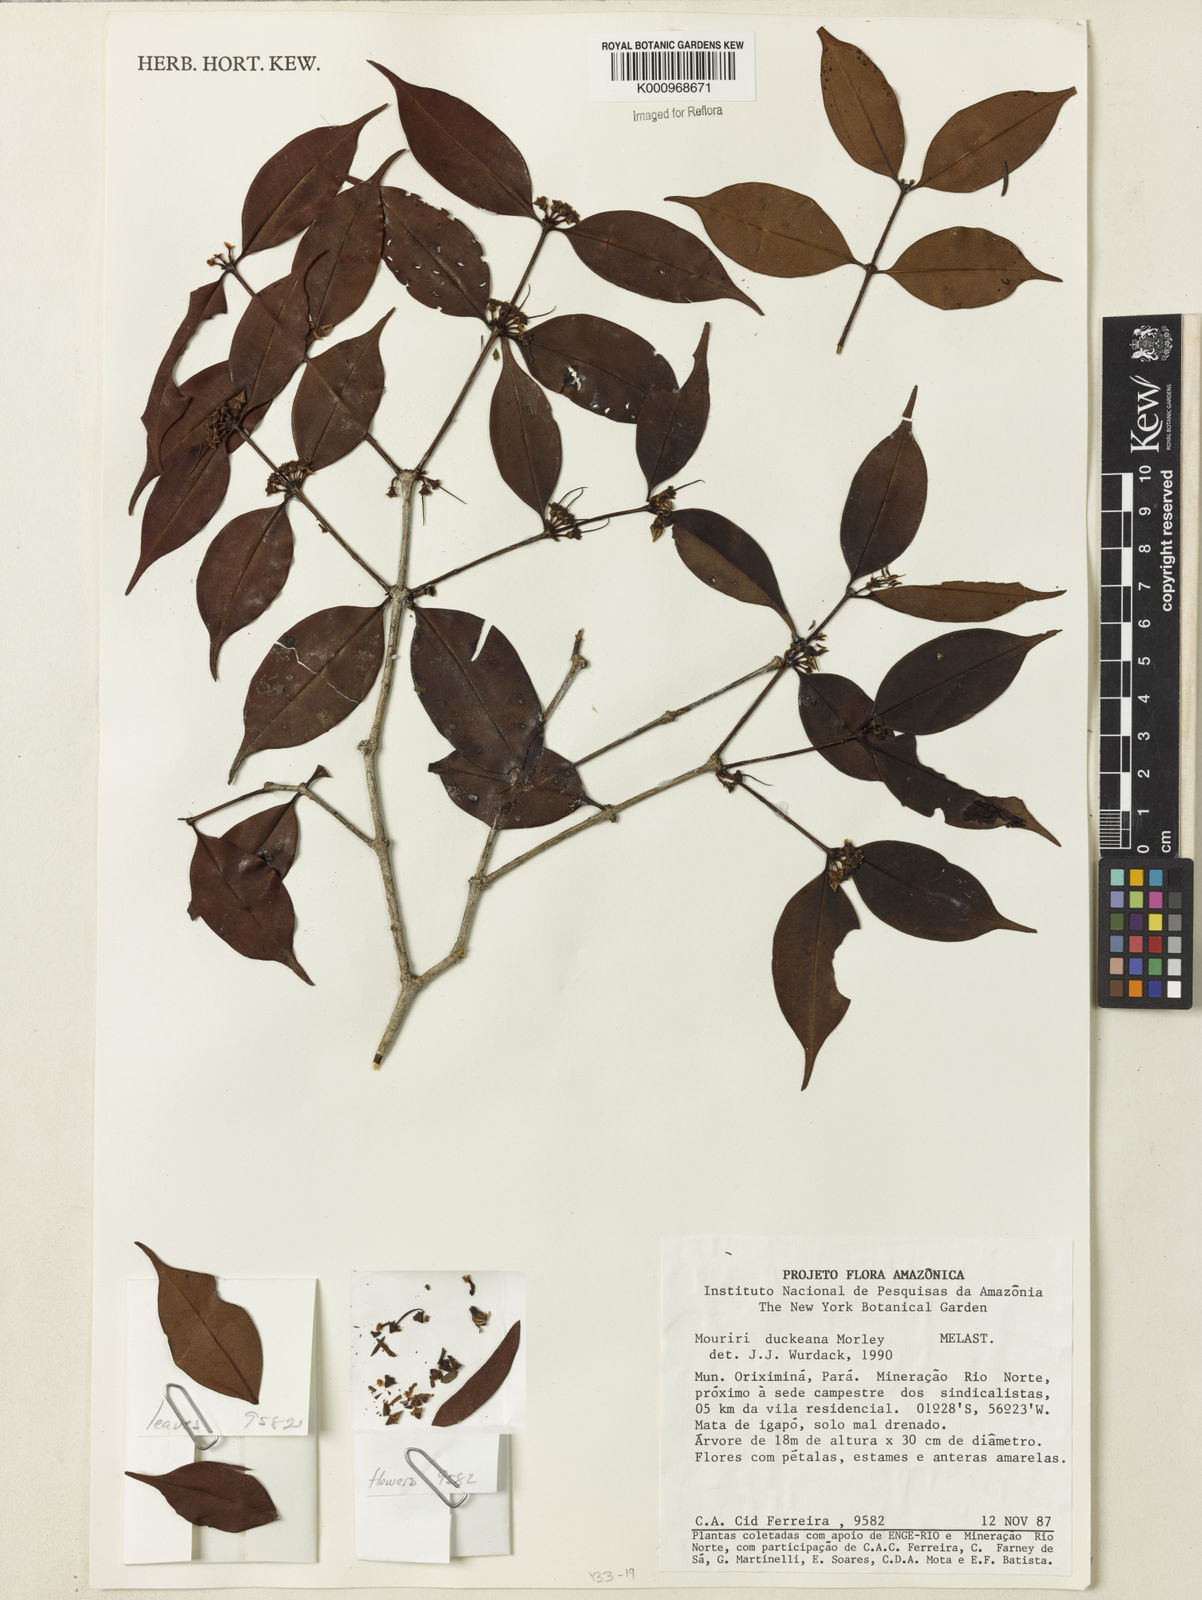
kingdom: Plantae
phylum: Tracheophyta
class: Magnoliopsida
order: Myrtales
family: Melastomataceae
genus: Mouriri
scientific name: Mouriri duckeana
